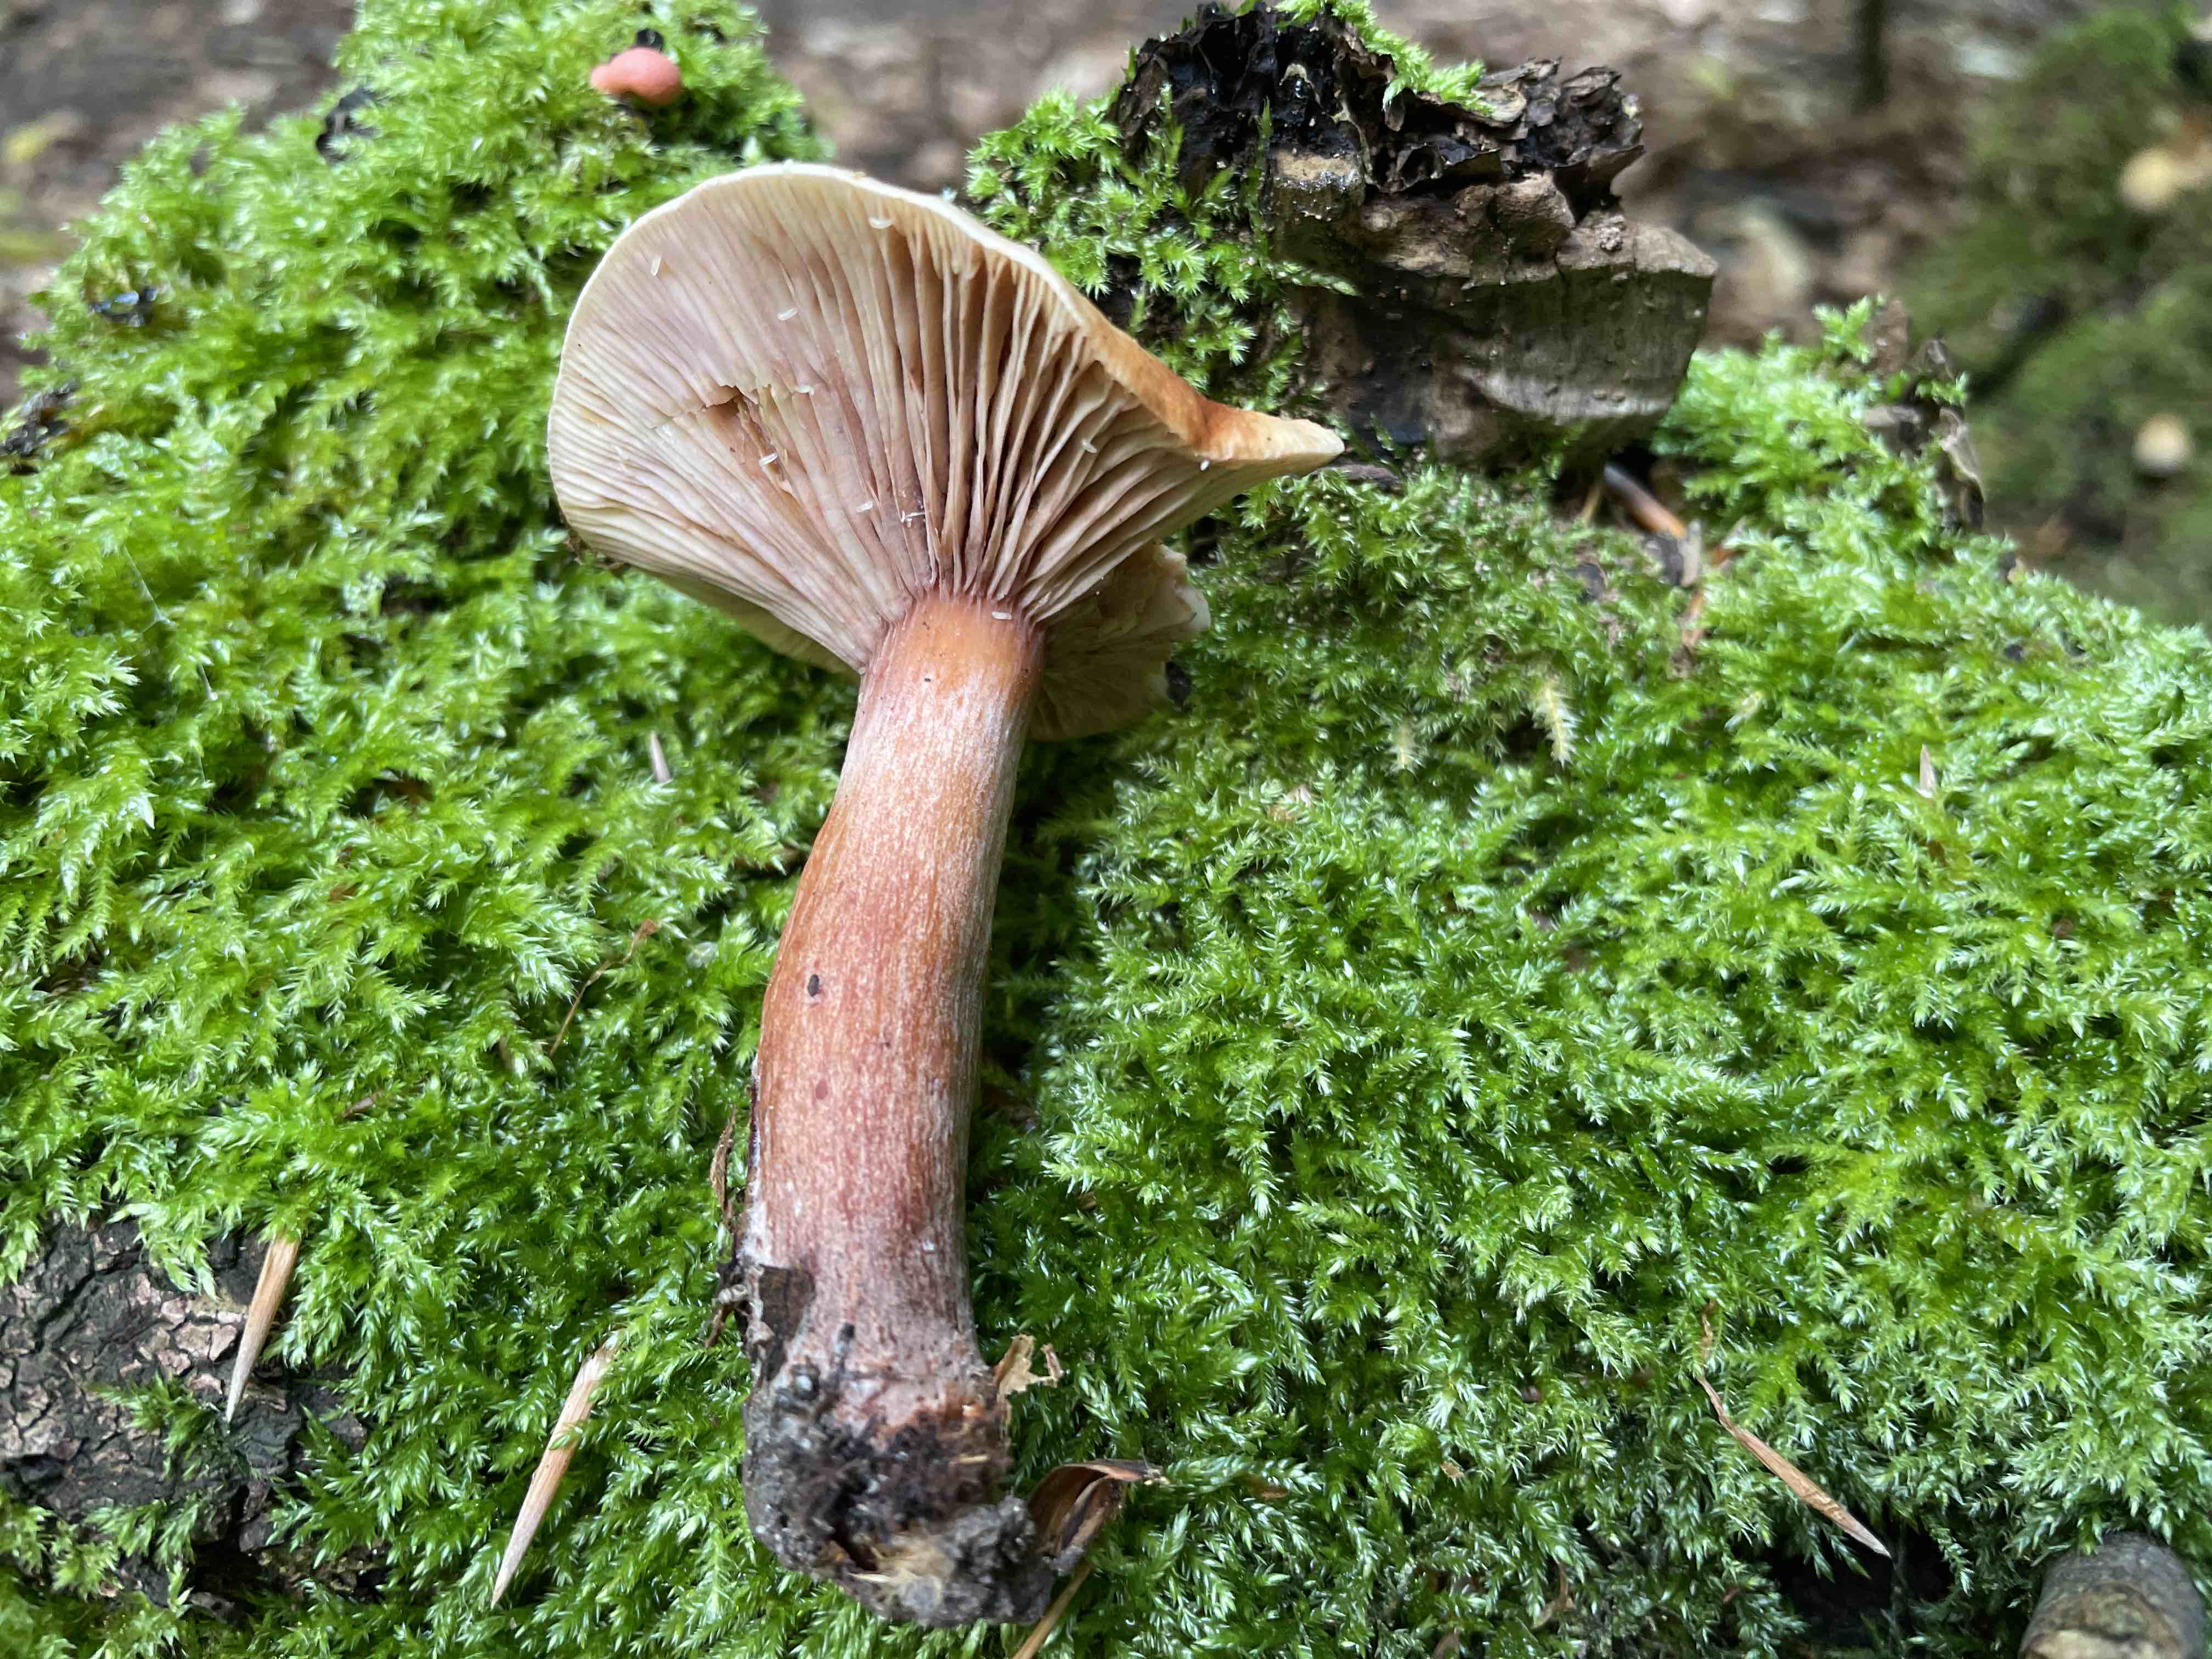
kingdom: Fungi
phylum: Basidiomycota
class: Agaricomycetes
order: Russulales
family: Russulaceae
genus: Lactarius
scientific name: Lactarius subdulcis
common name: sødlig mælkehat
